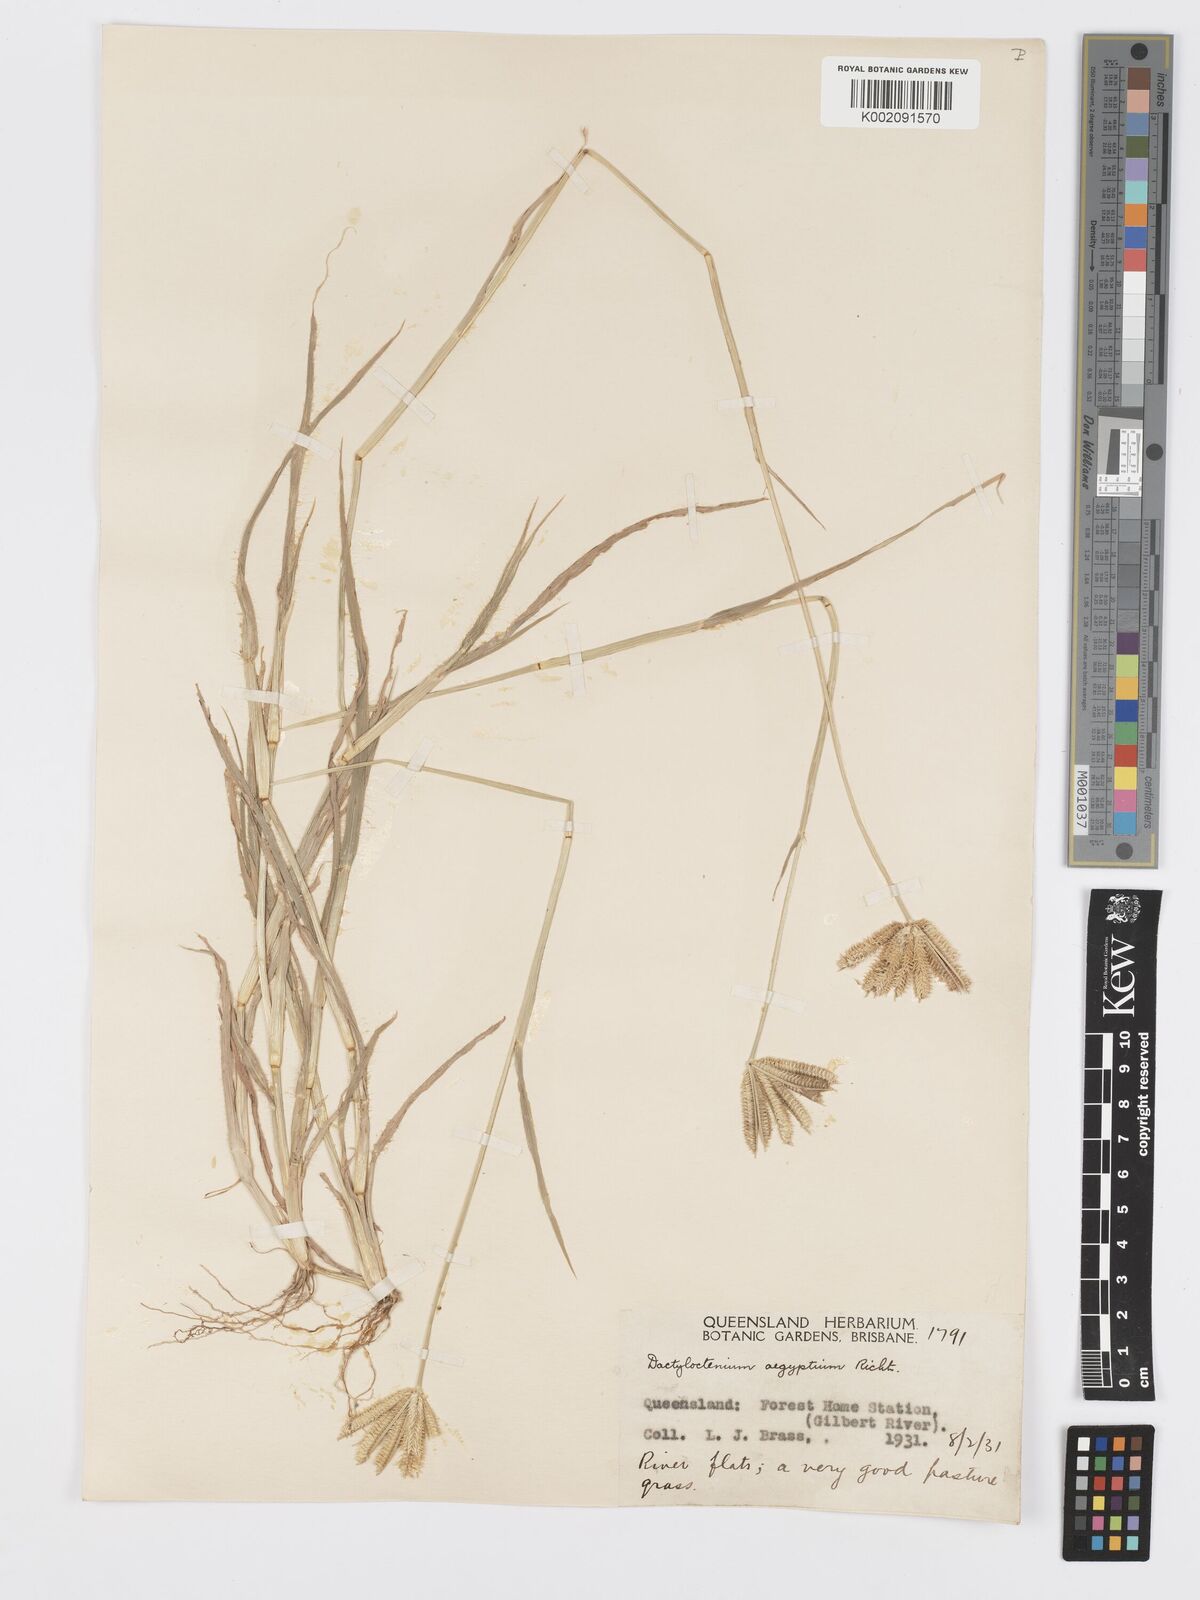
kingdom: Plantae
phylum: Tracheophyta
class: Liliopsida
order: Poales
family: Poaceae
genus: Dactyloctenium
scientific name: Dactyloctenium radulans
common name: Button-grass
